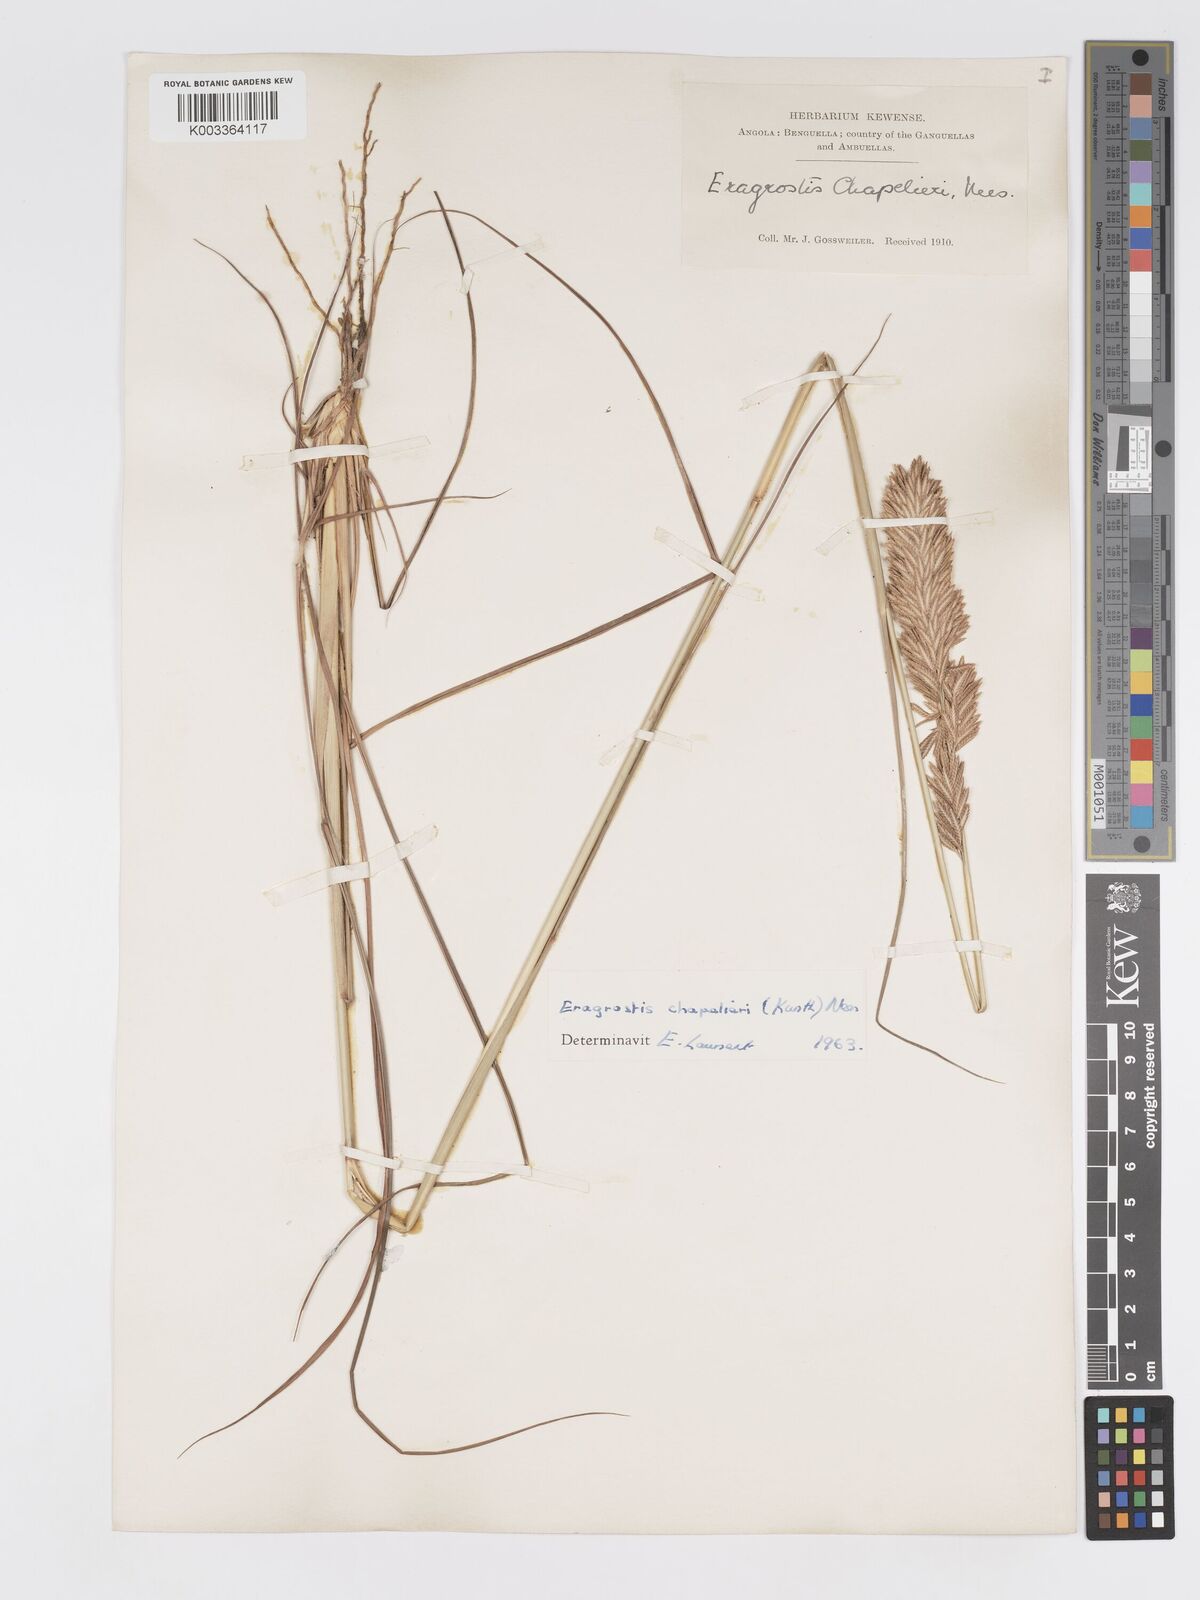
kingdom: Plantae
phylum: Tracheophyta
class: Liliopsida
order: Poales
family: Poaceae
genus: Eragrostis
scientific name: Eragrostis chapelieri
